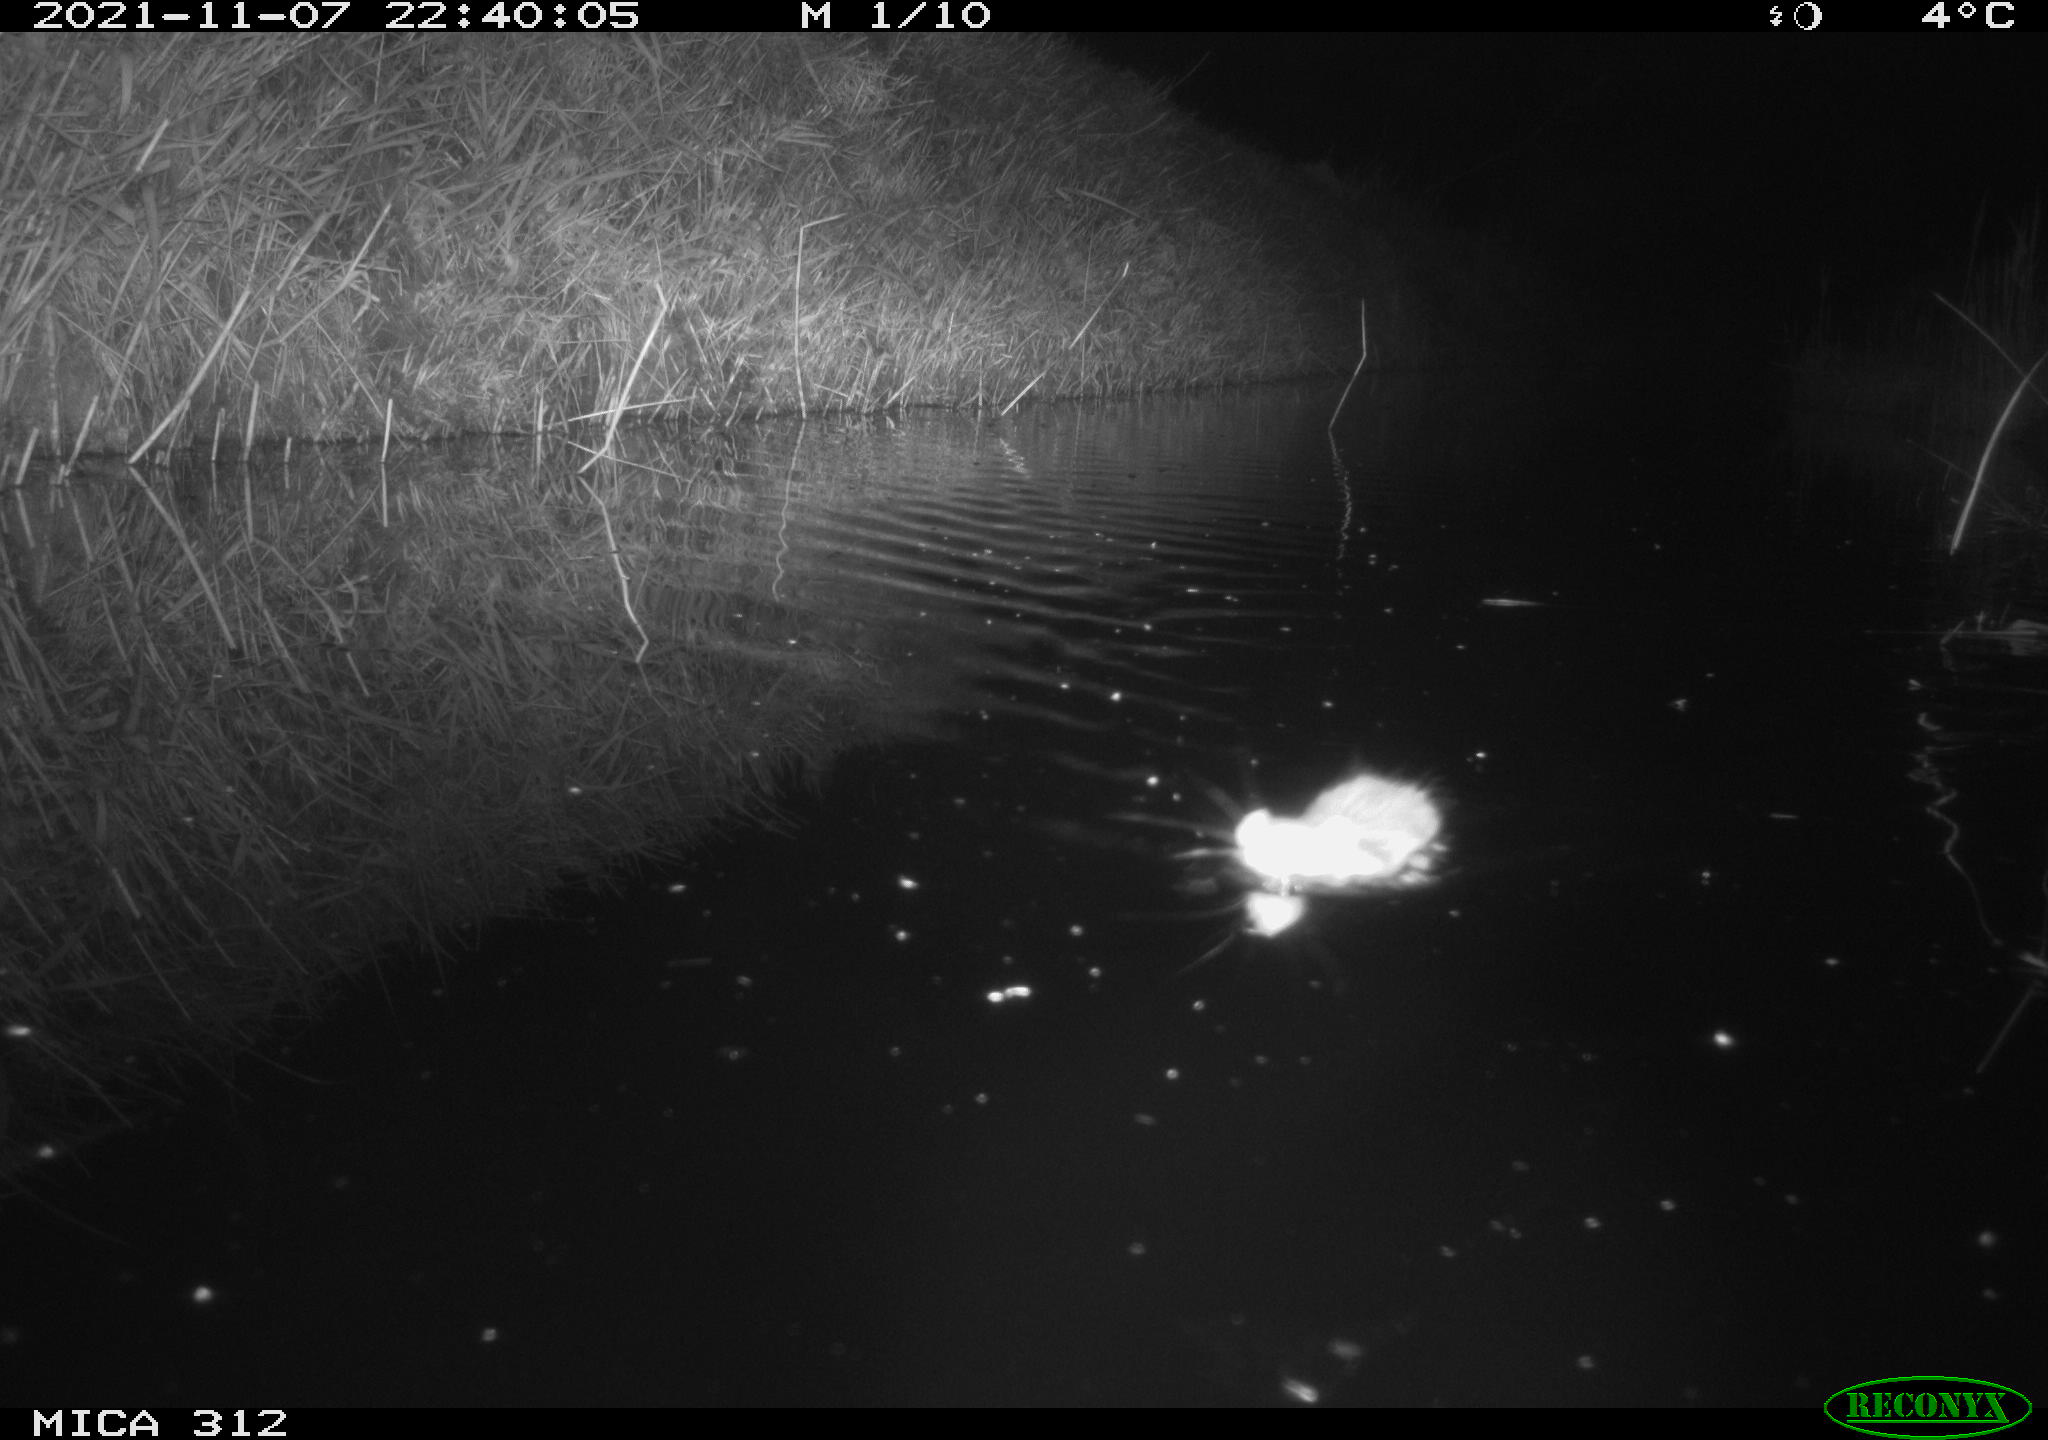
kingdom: Animalia
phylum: Chordata
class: Mammalia
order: Rodentia
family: Muridae
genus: Rattus
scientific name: Rattus norvegicus
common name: Brown rat
